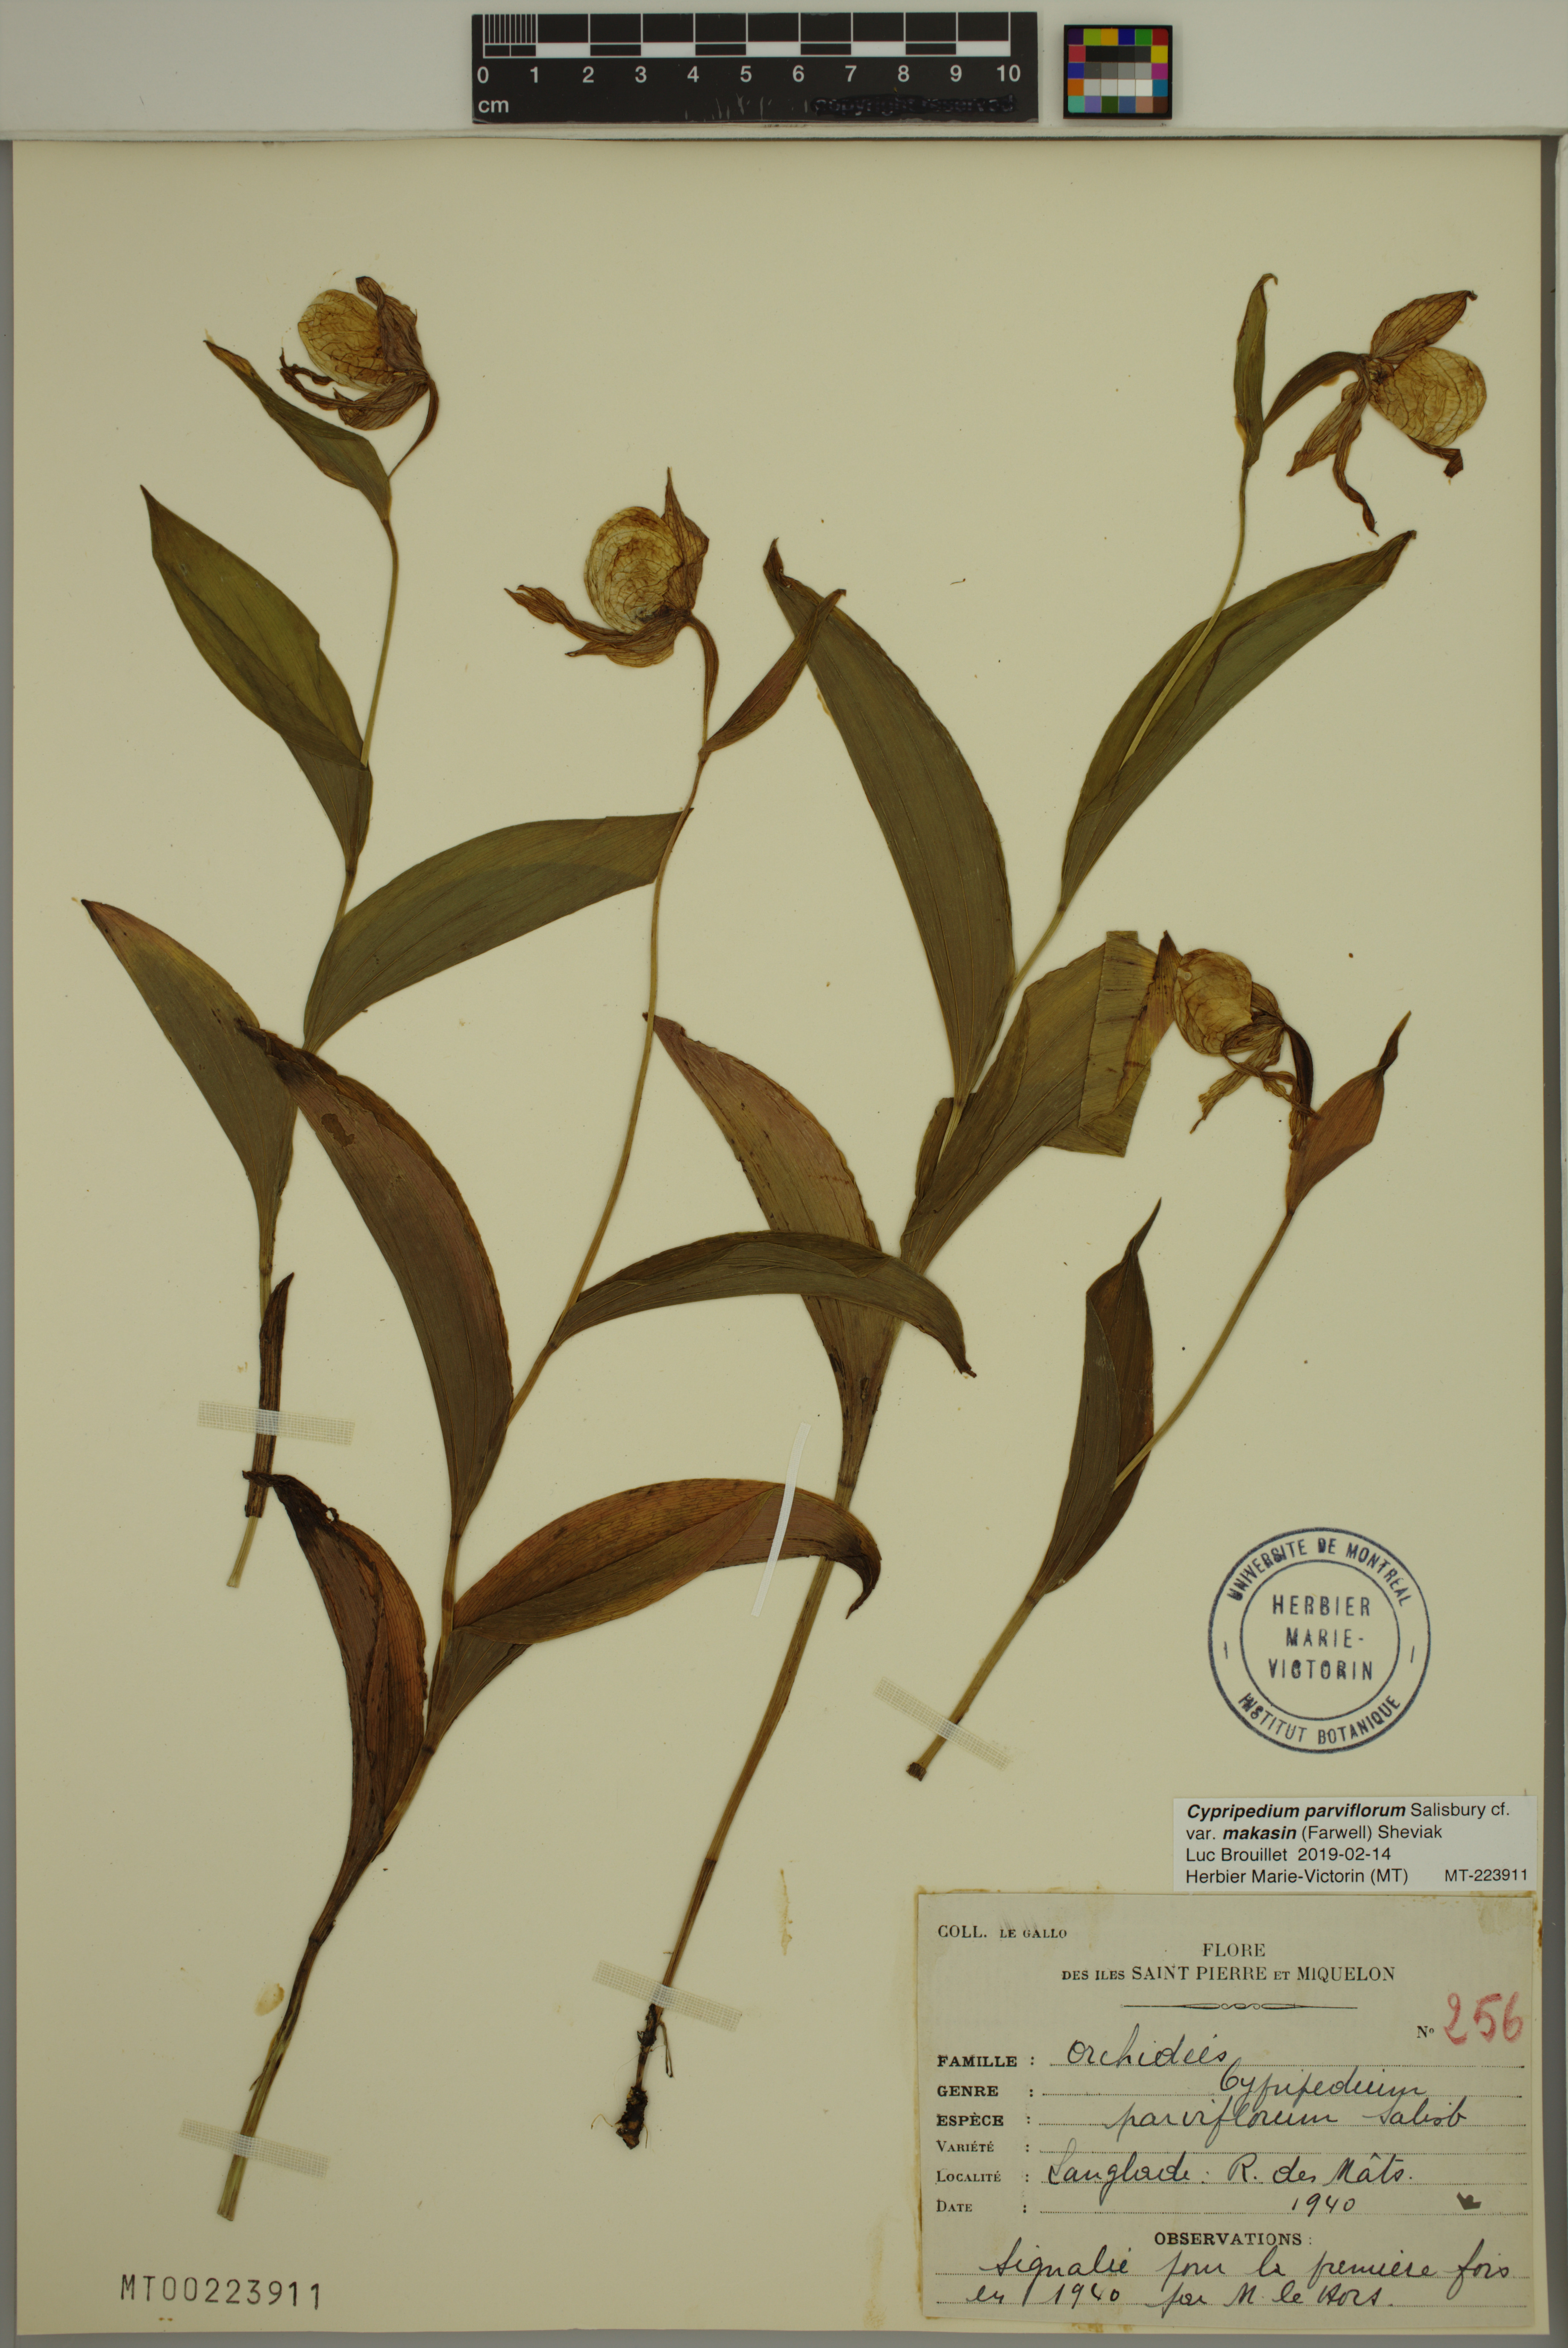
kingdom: Plantae
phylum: Tracheophyta
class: Liliopsida
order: Asparagales
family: Orchidaceae
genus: Cypripedium
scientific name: Cypripedium parviflorum
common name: American yellow lady's-slipper
